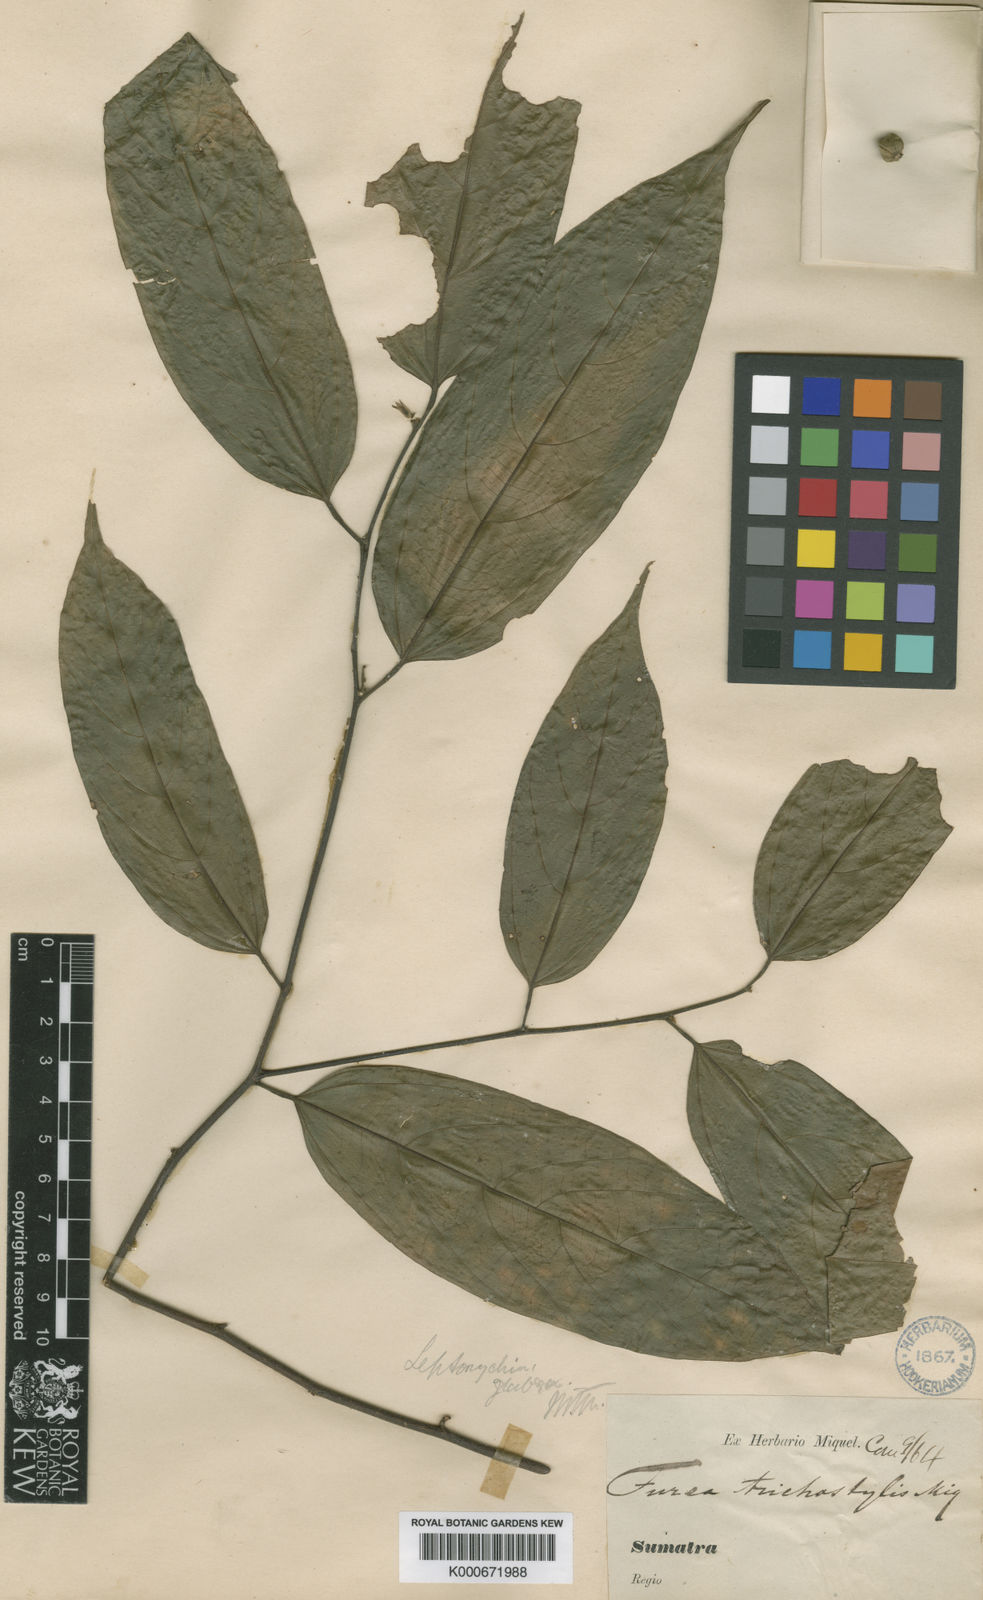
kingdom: Plantae
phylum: Tracheophyta
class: Magnoliopsida
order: Malvales
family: Malvaceae
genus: Leptonychia
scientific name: Leptonychia caudata
